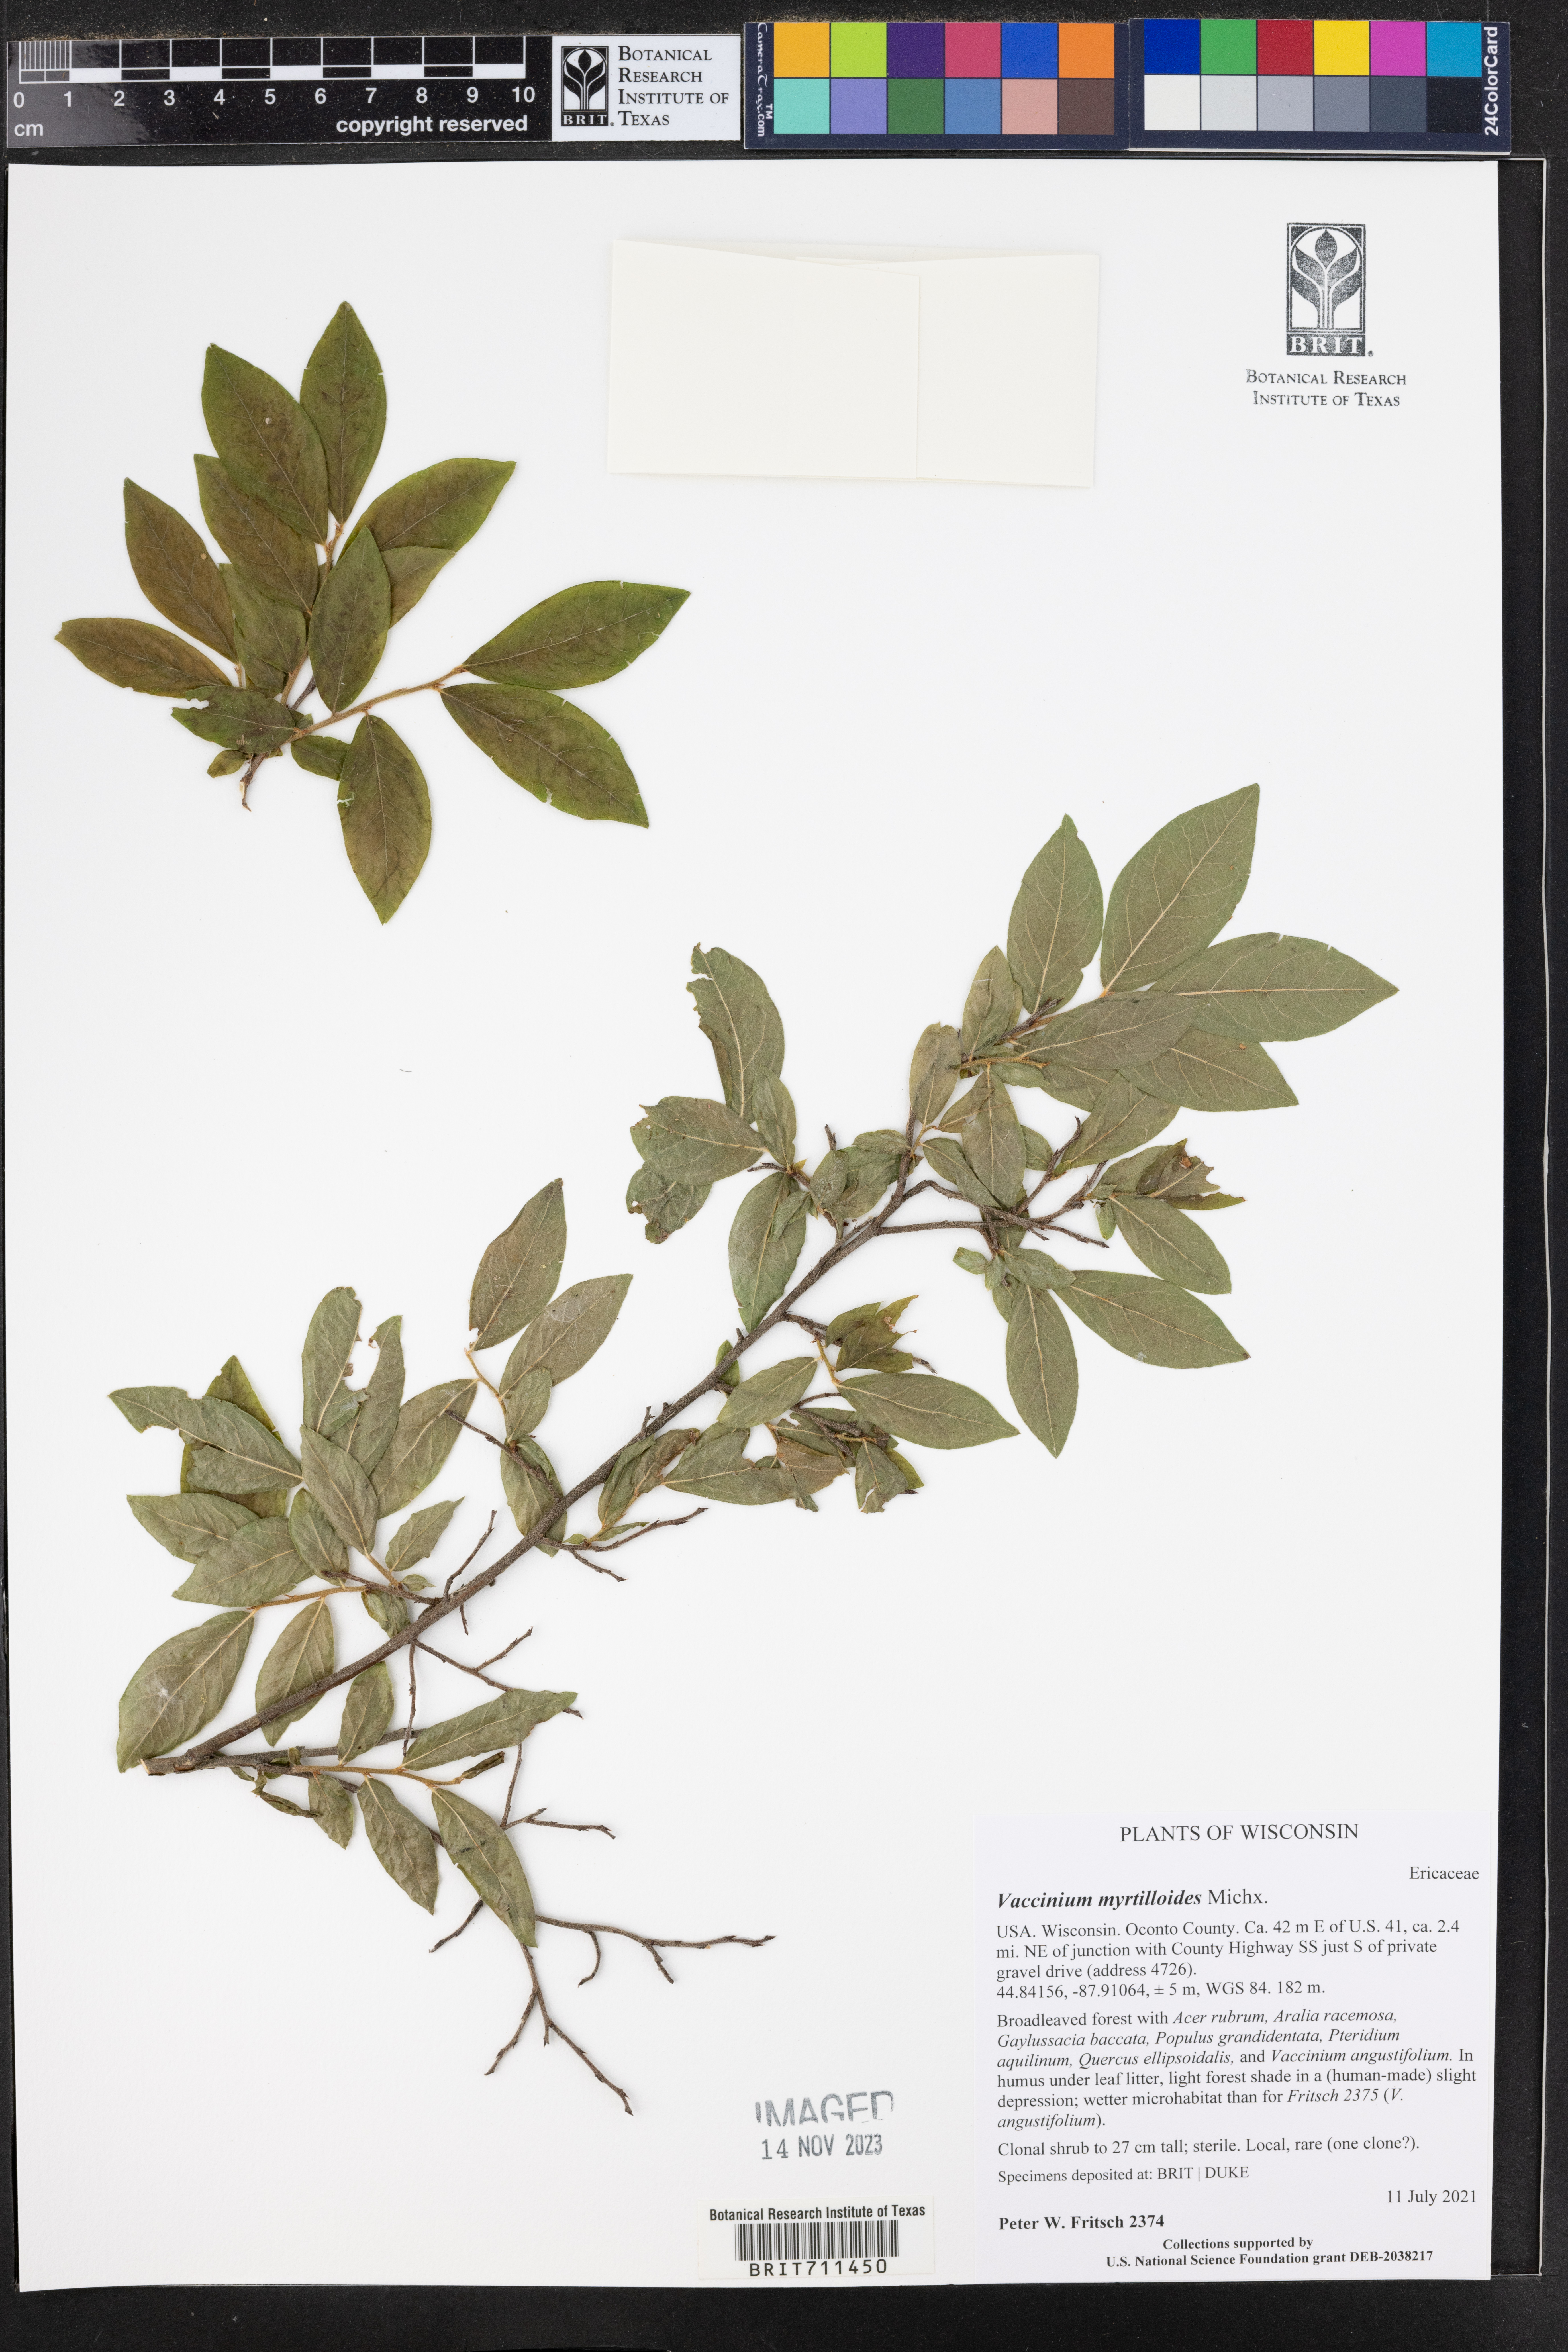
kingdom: Plantae
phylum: Tracheophyta
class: Magnoliopsida
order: Ericales
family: Ericaceae
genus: Vaccinium
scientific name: Vaccinium
